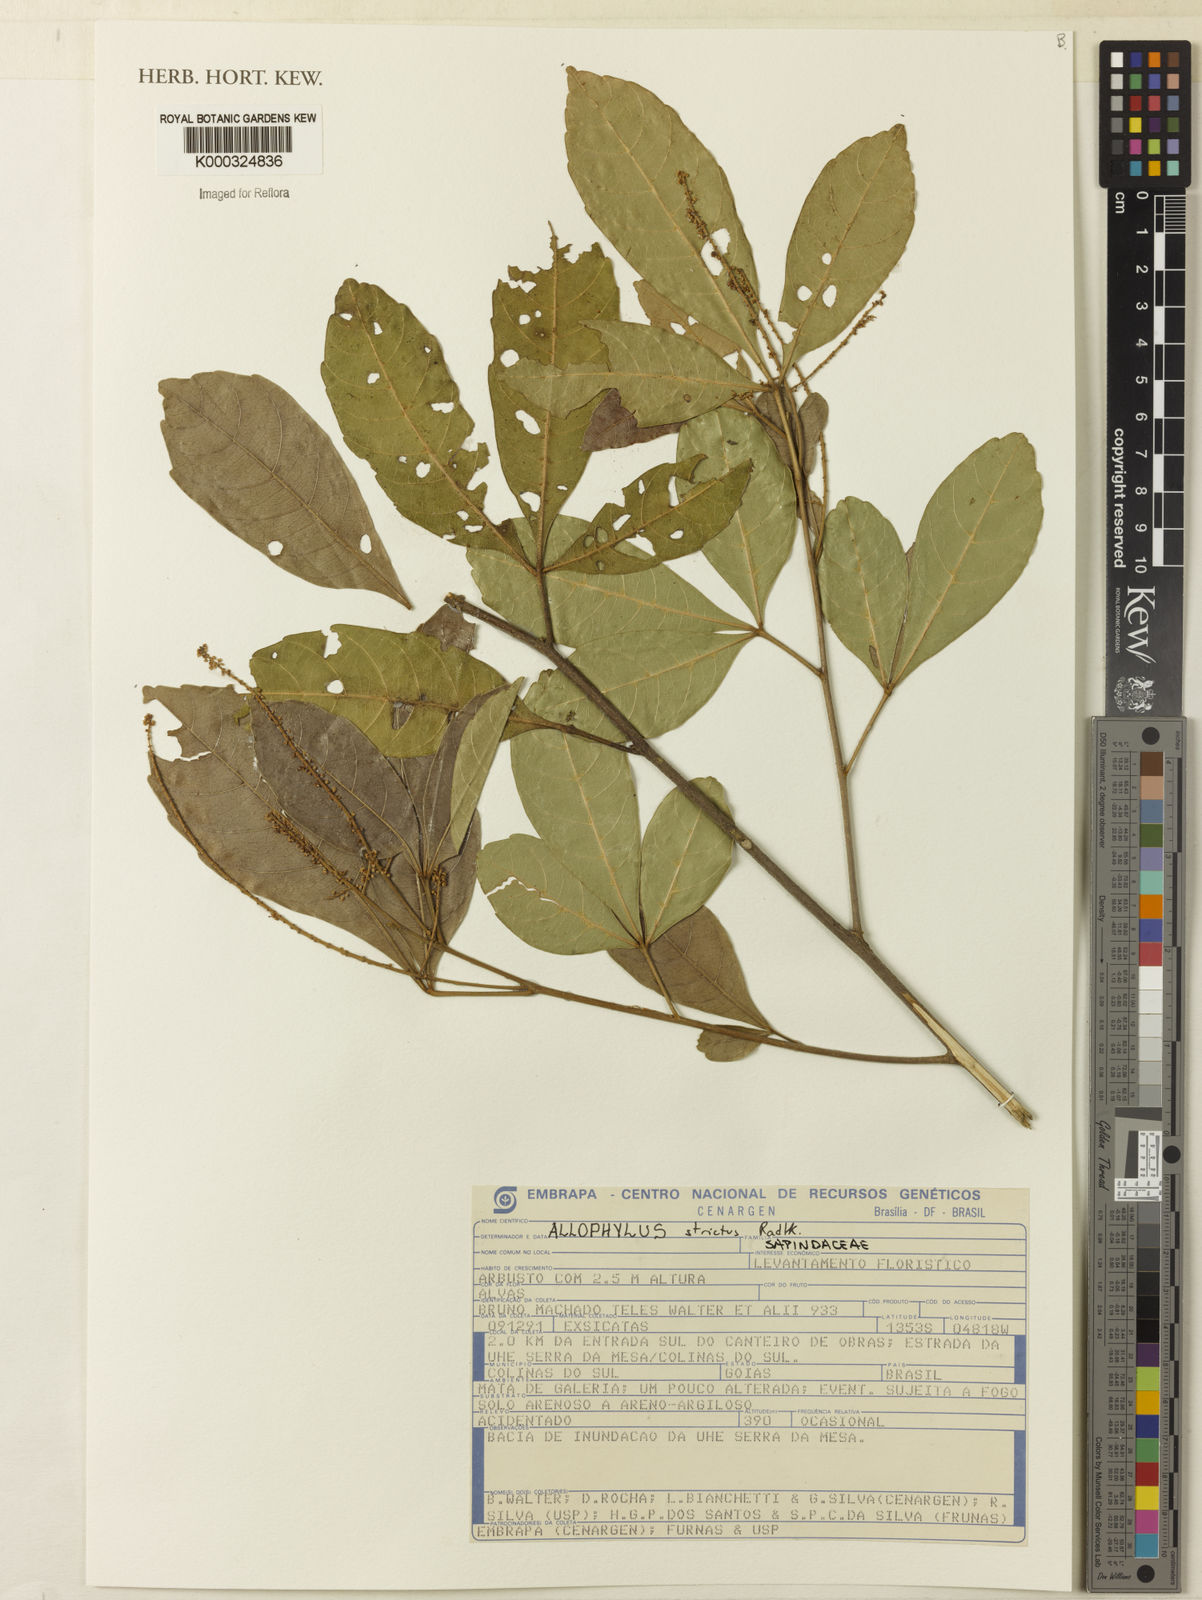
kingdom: Plantae
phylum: Tracheophyta
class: Magnoliopsida
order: Sapindales
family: Sapindaceae
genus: Allophylus
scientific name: Allophylus strictus
